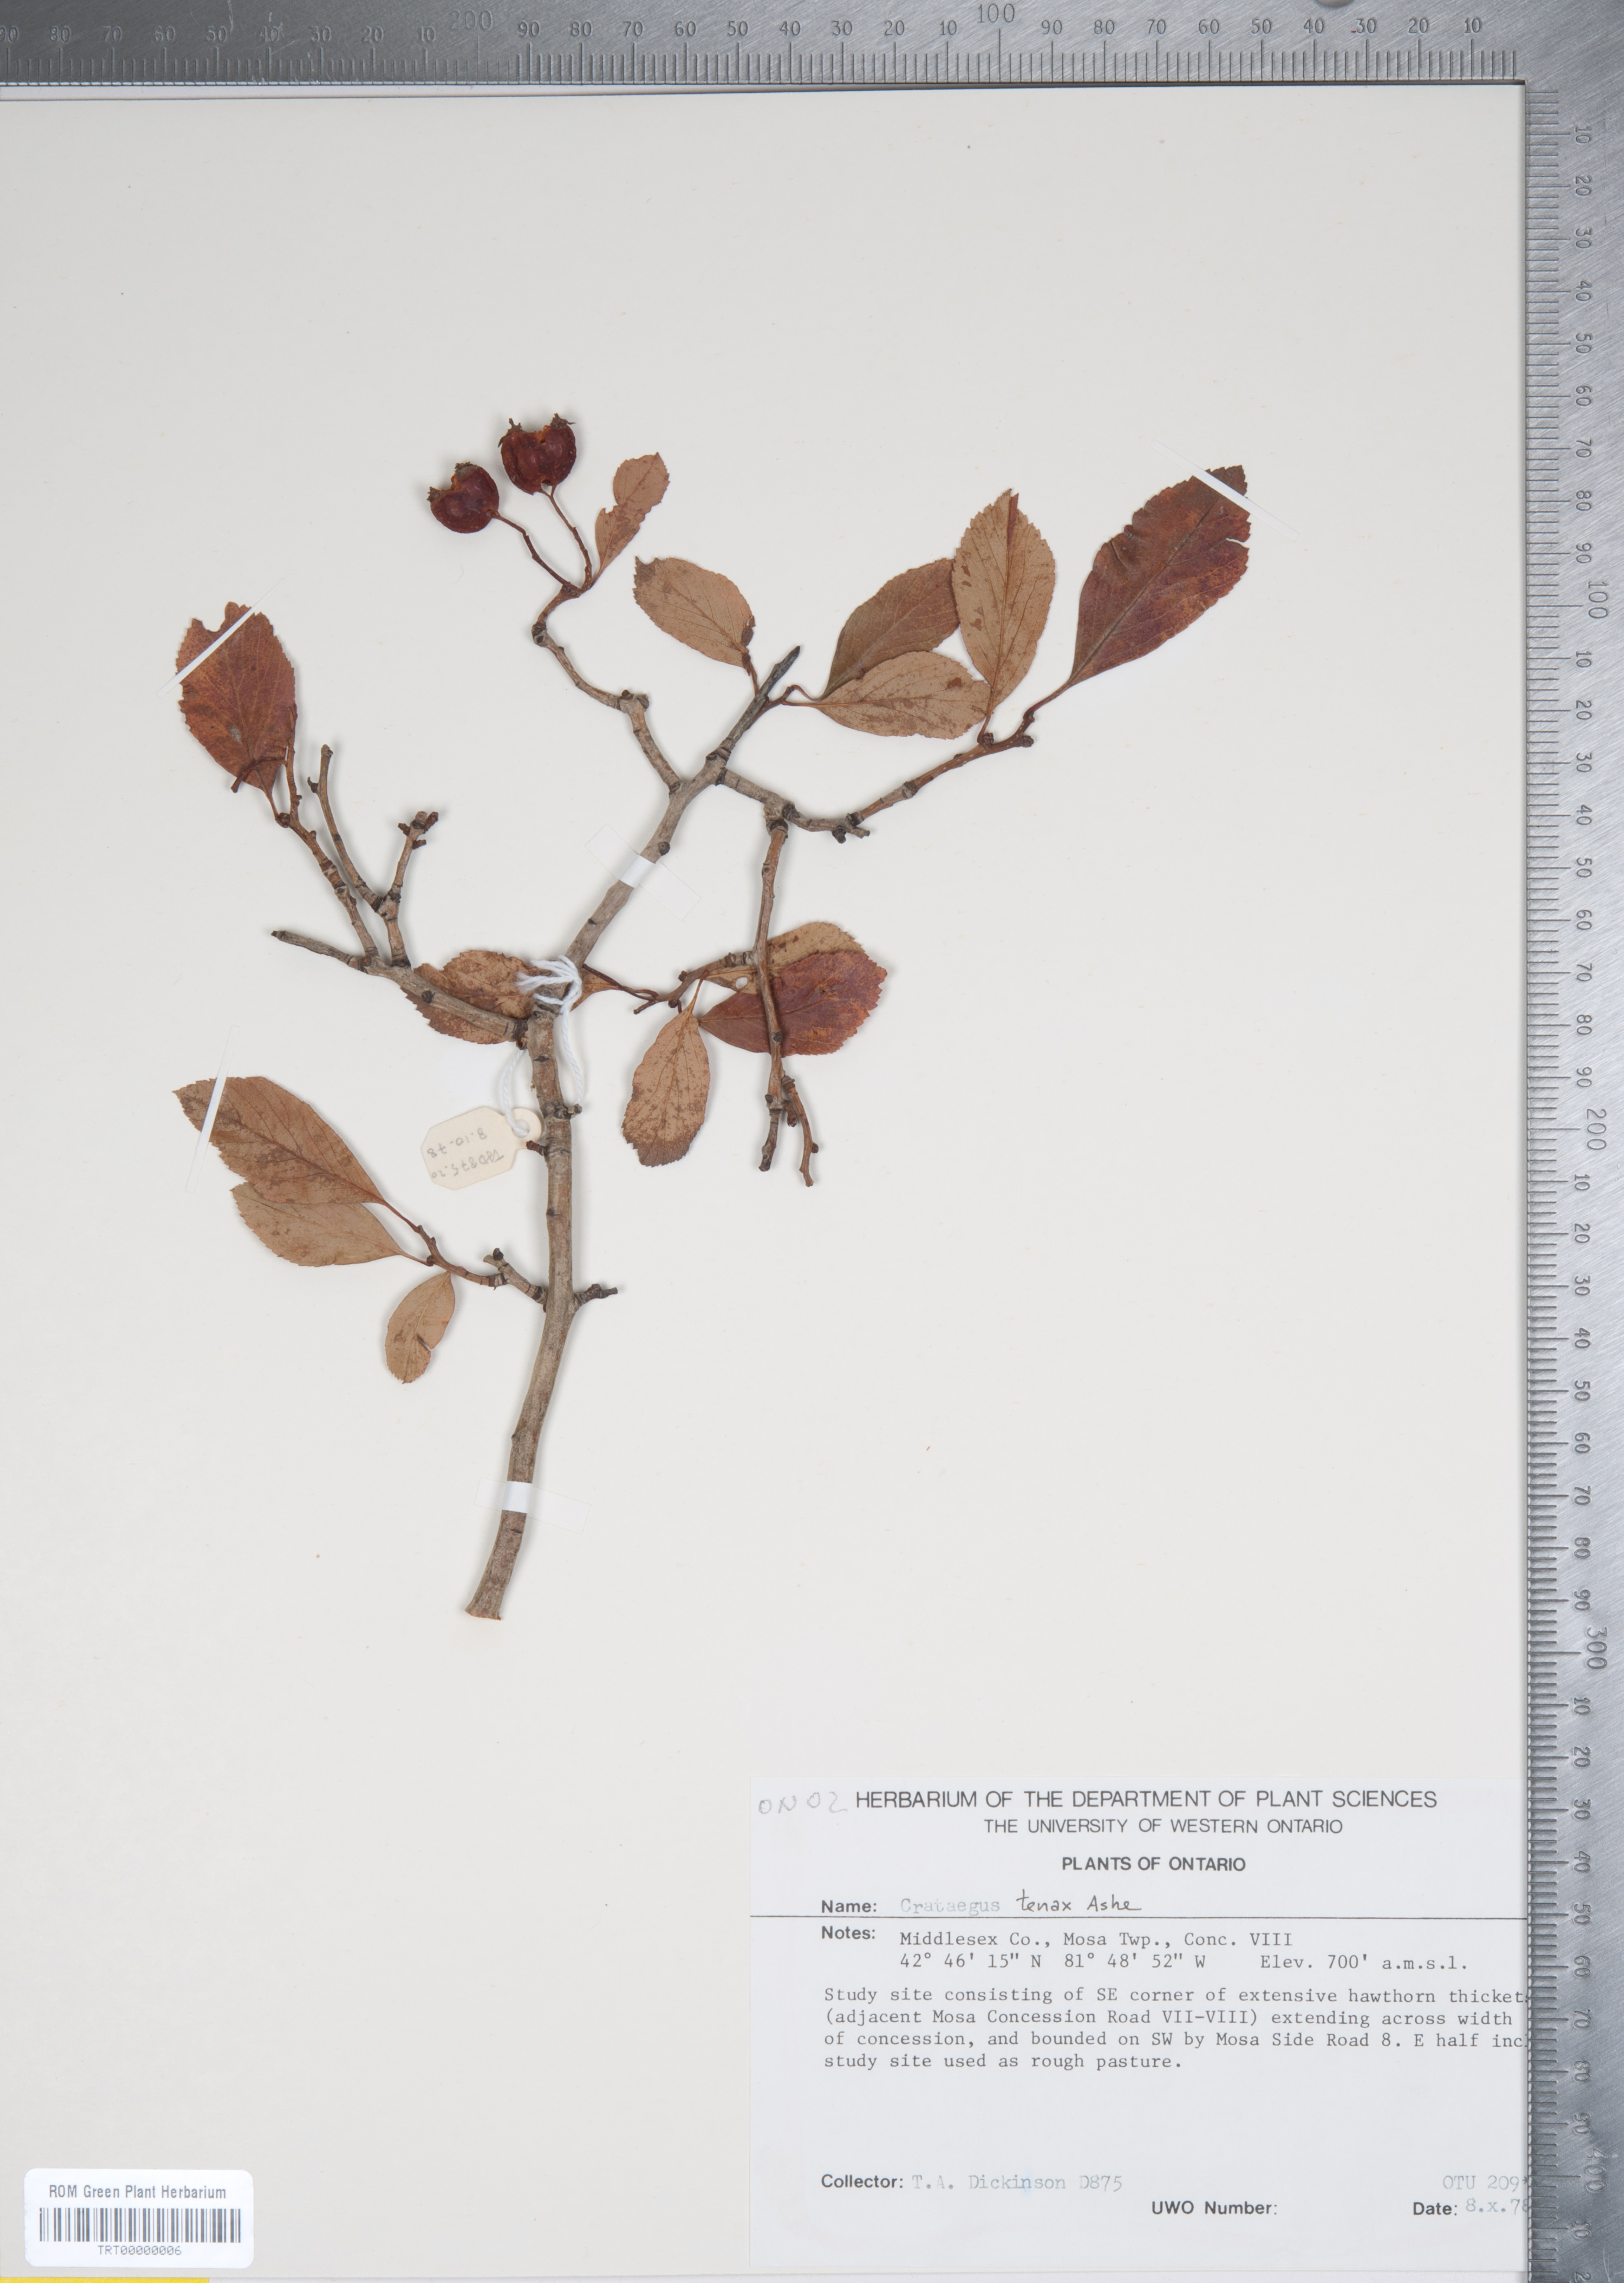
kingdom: Plantae
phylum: Tracheophyta
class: Magnoliopsida
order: Rosales
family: Rosaceae
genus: Crataegus
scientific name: Crataegus crus-galli
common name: Cockspurthorn
